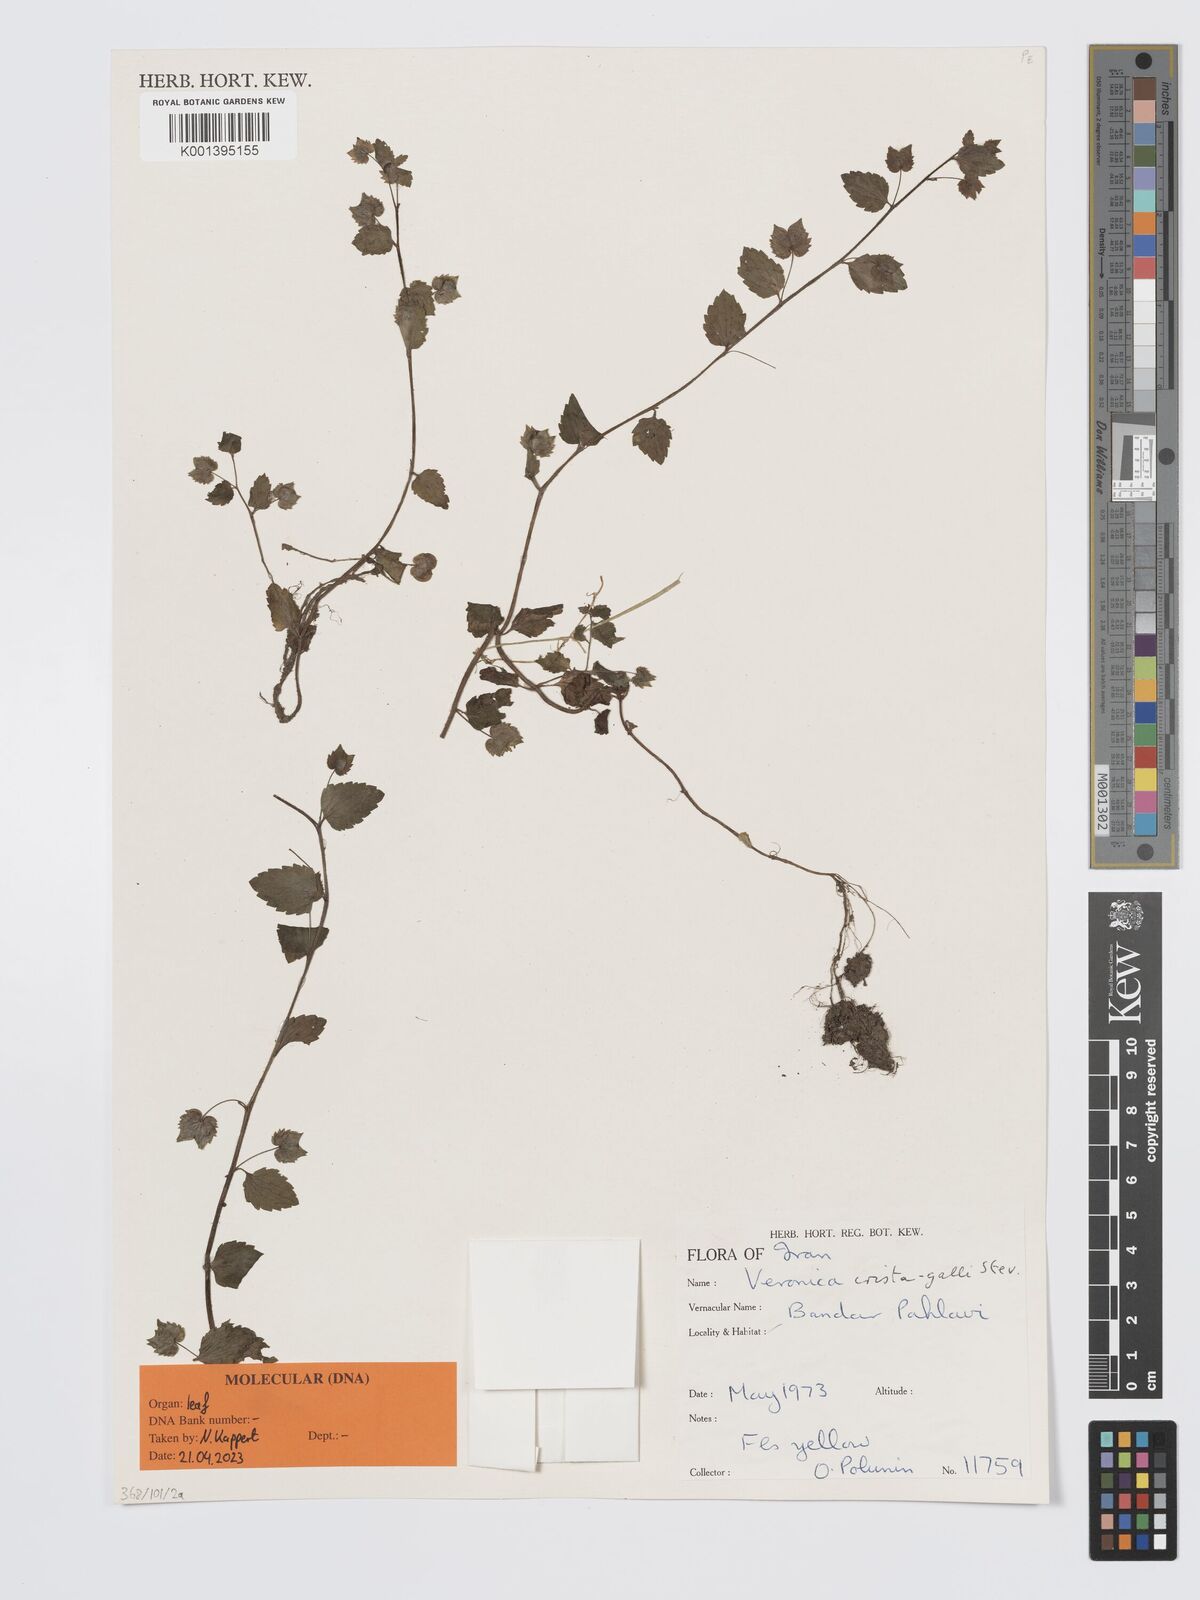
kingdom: Plantae
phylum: Tracheophyta
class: Magnoliopsida
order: Lamiales
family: Plantaginaceae
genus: Veronica
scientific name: Veronica crista-galli
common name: Crested field-speedwell
